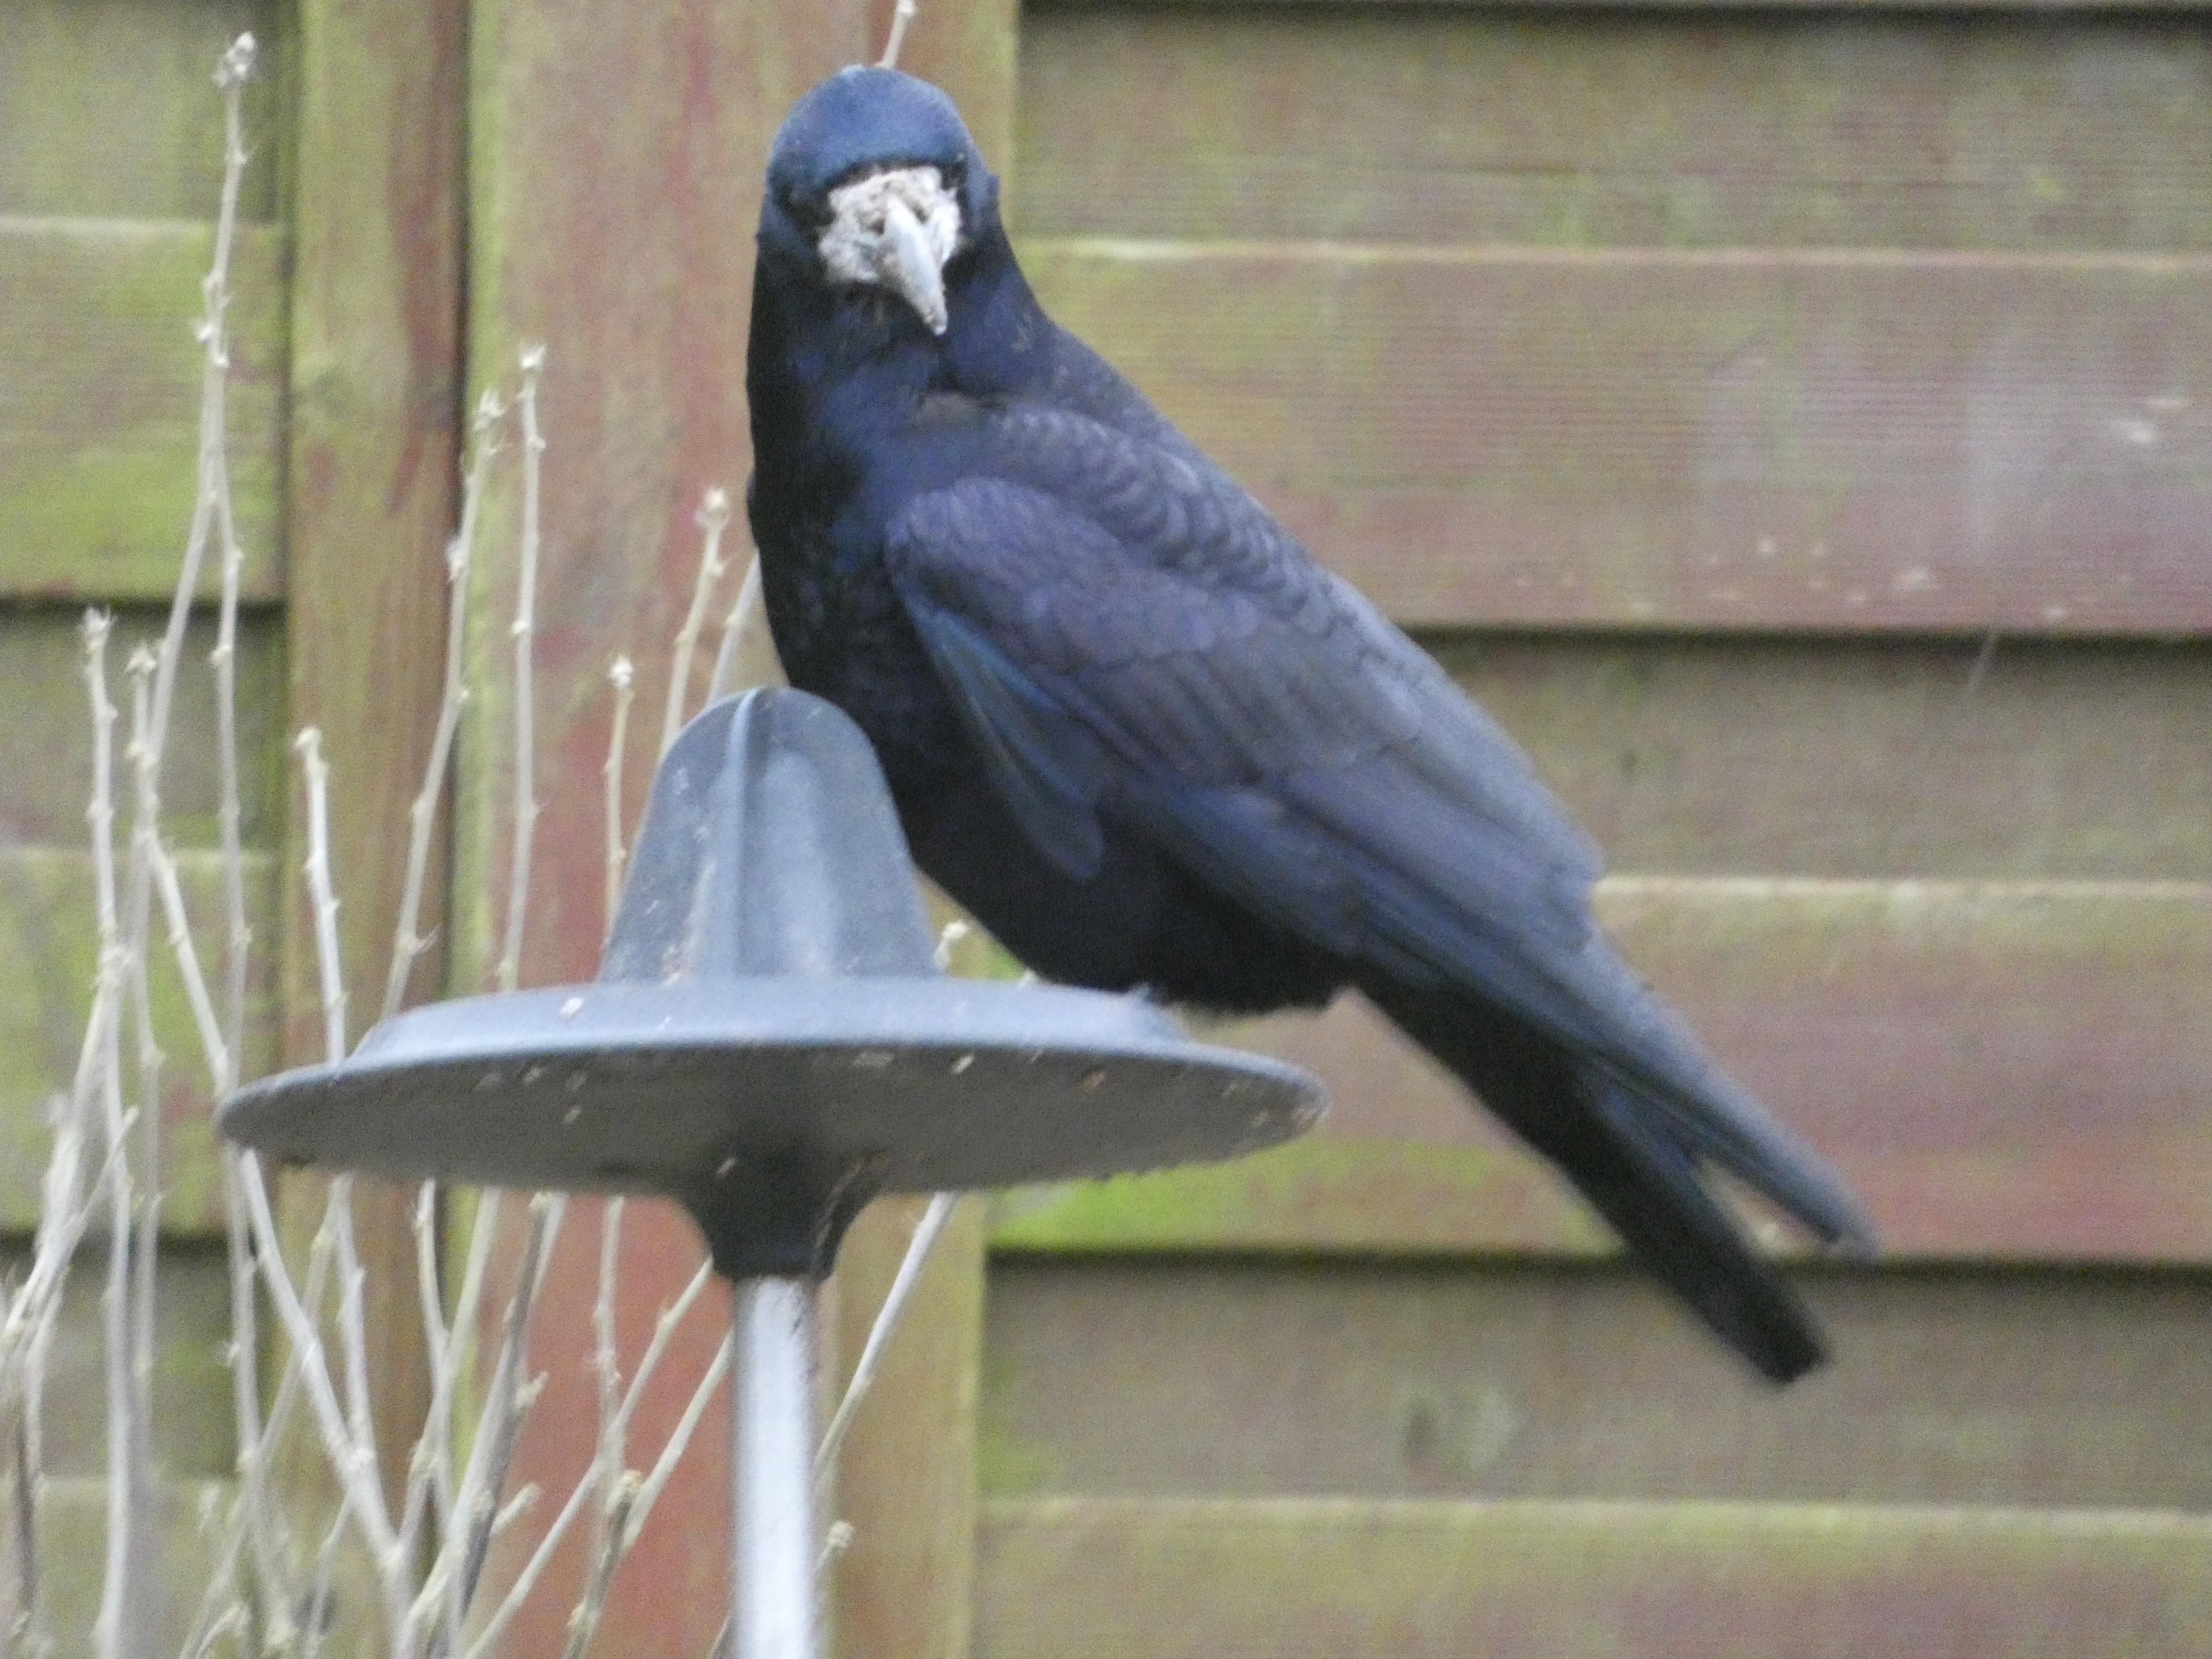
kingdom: Animalia
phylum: Chordata
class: Aves
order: Passeriformes
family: Corvidae
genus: Corvus
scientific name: Corvus frugilegus
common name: Råge
